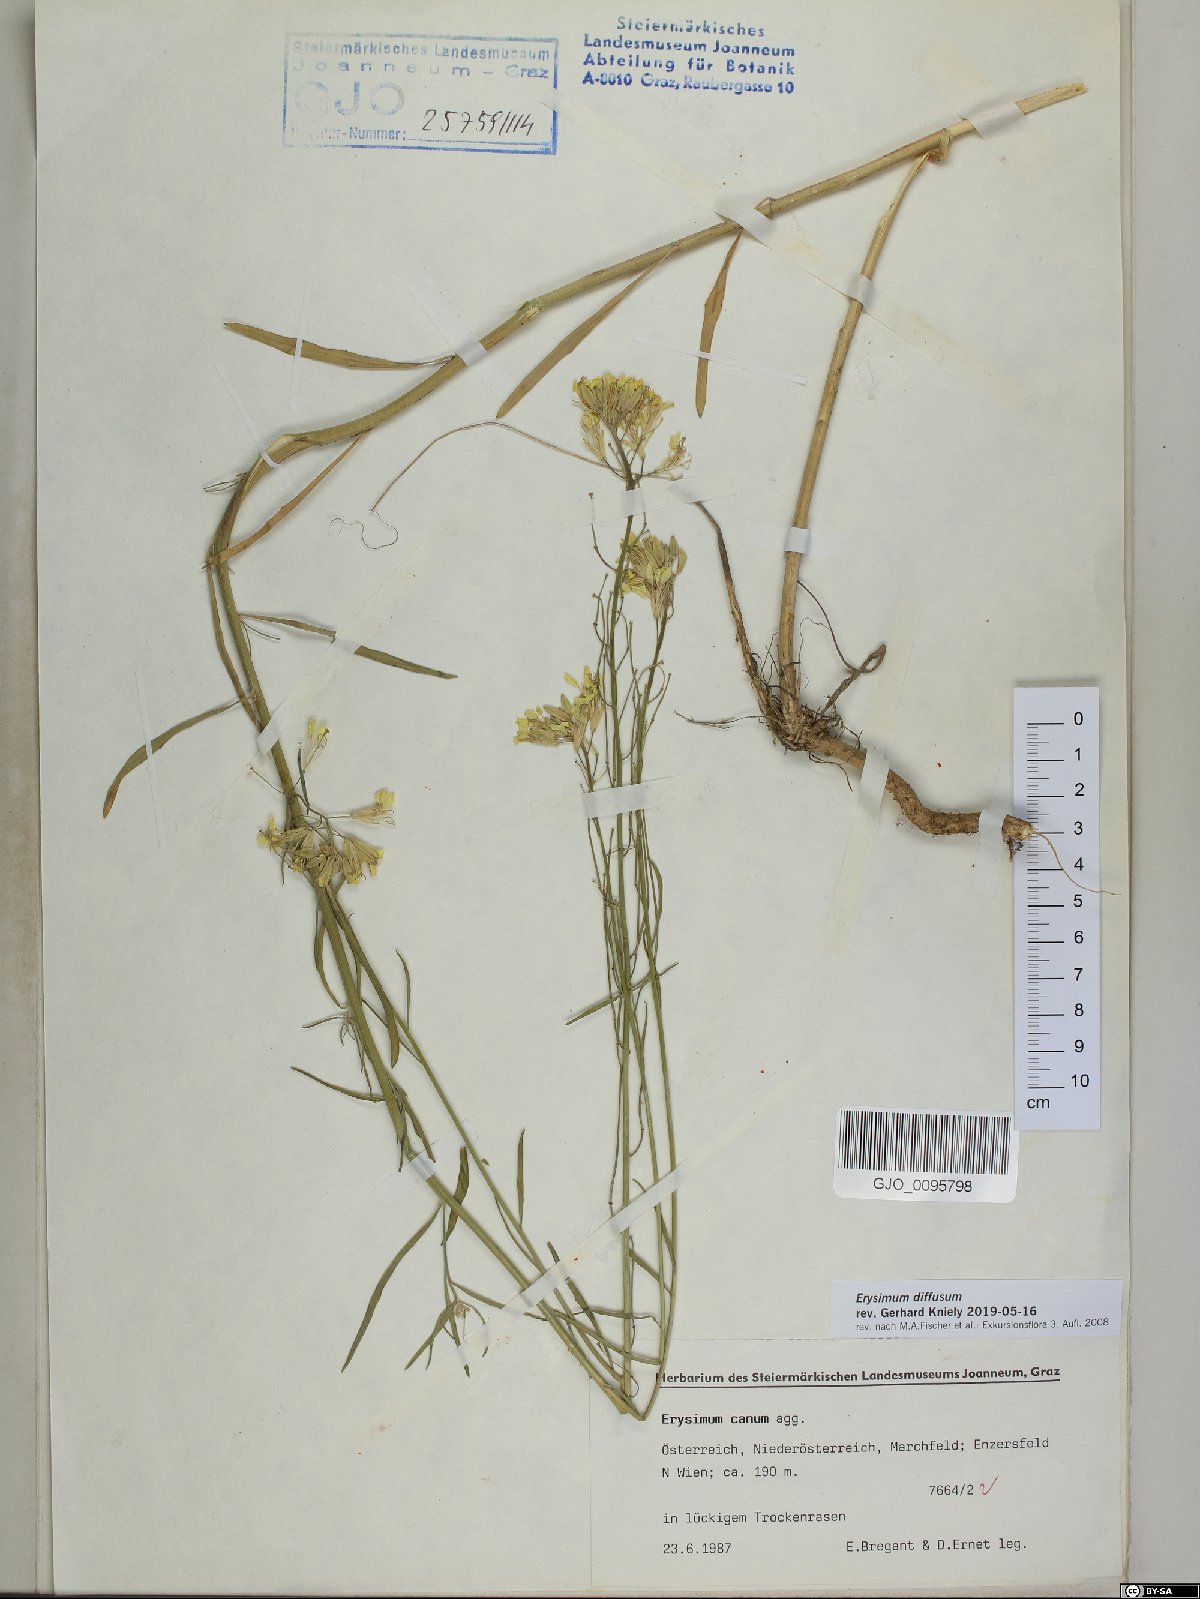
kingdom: Plantae
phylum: Tracheophyta
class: Magnoliopsida
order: Brassicales
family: Brassicaceae
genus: Erysimum
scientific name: Erysimum diffusum
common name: Diffuse wallflower
